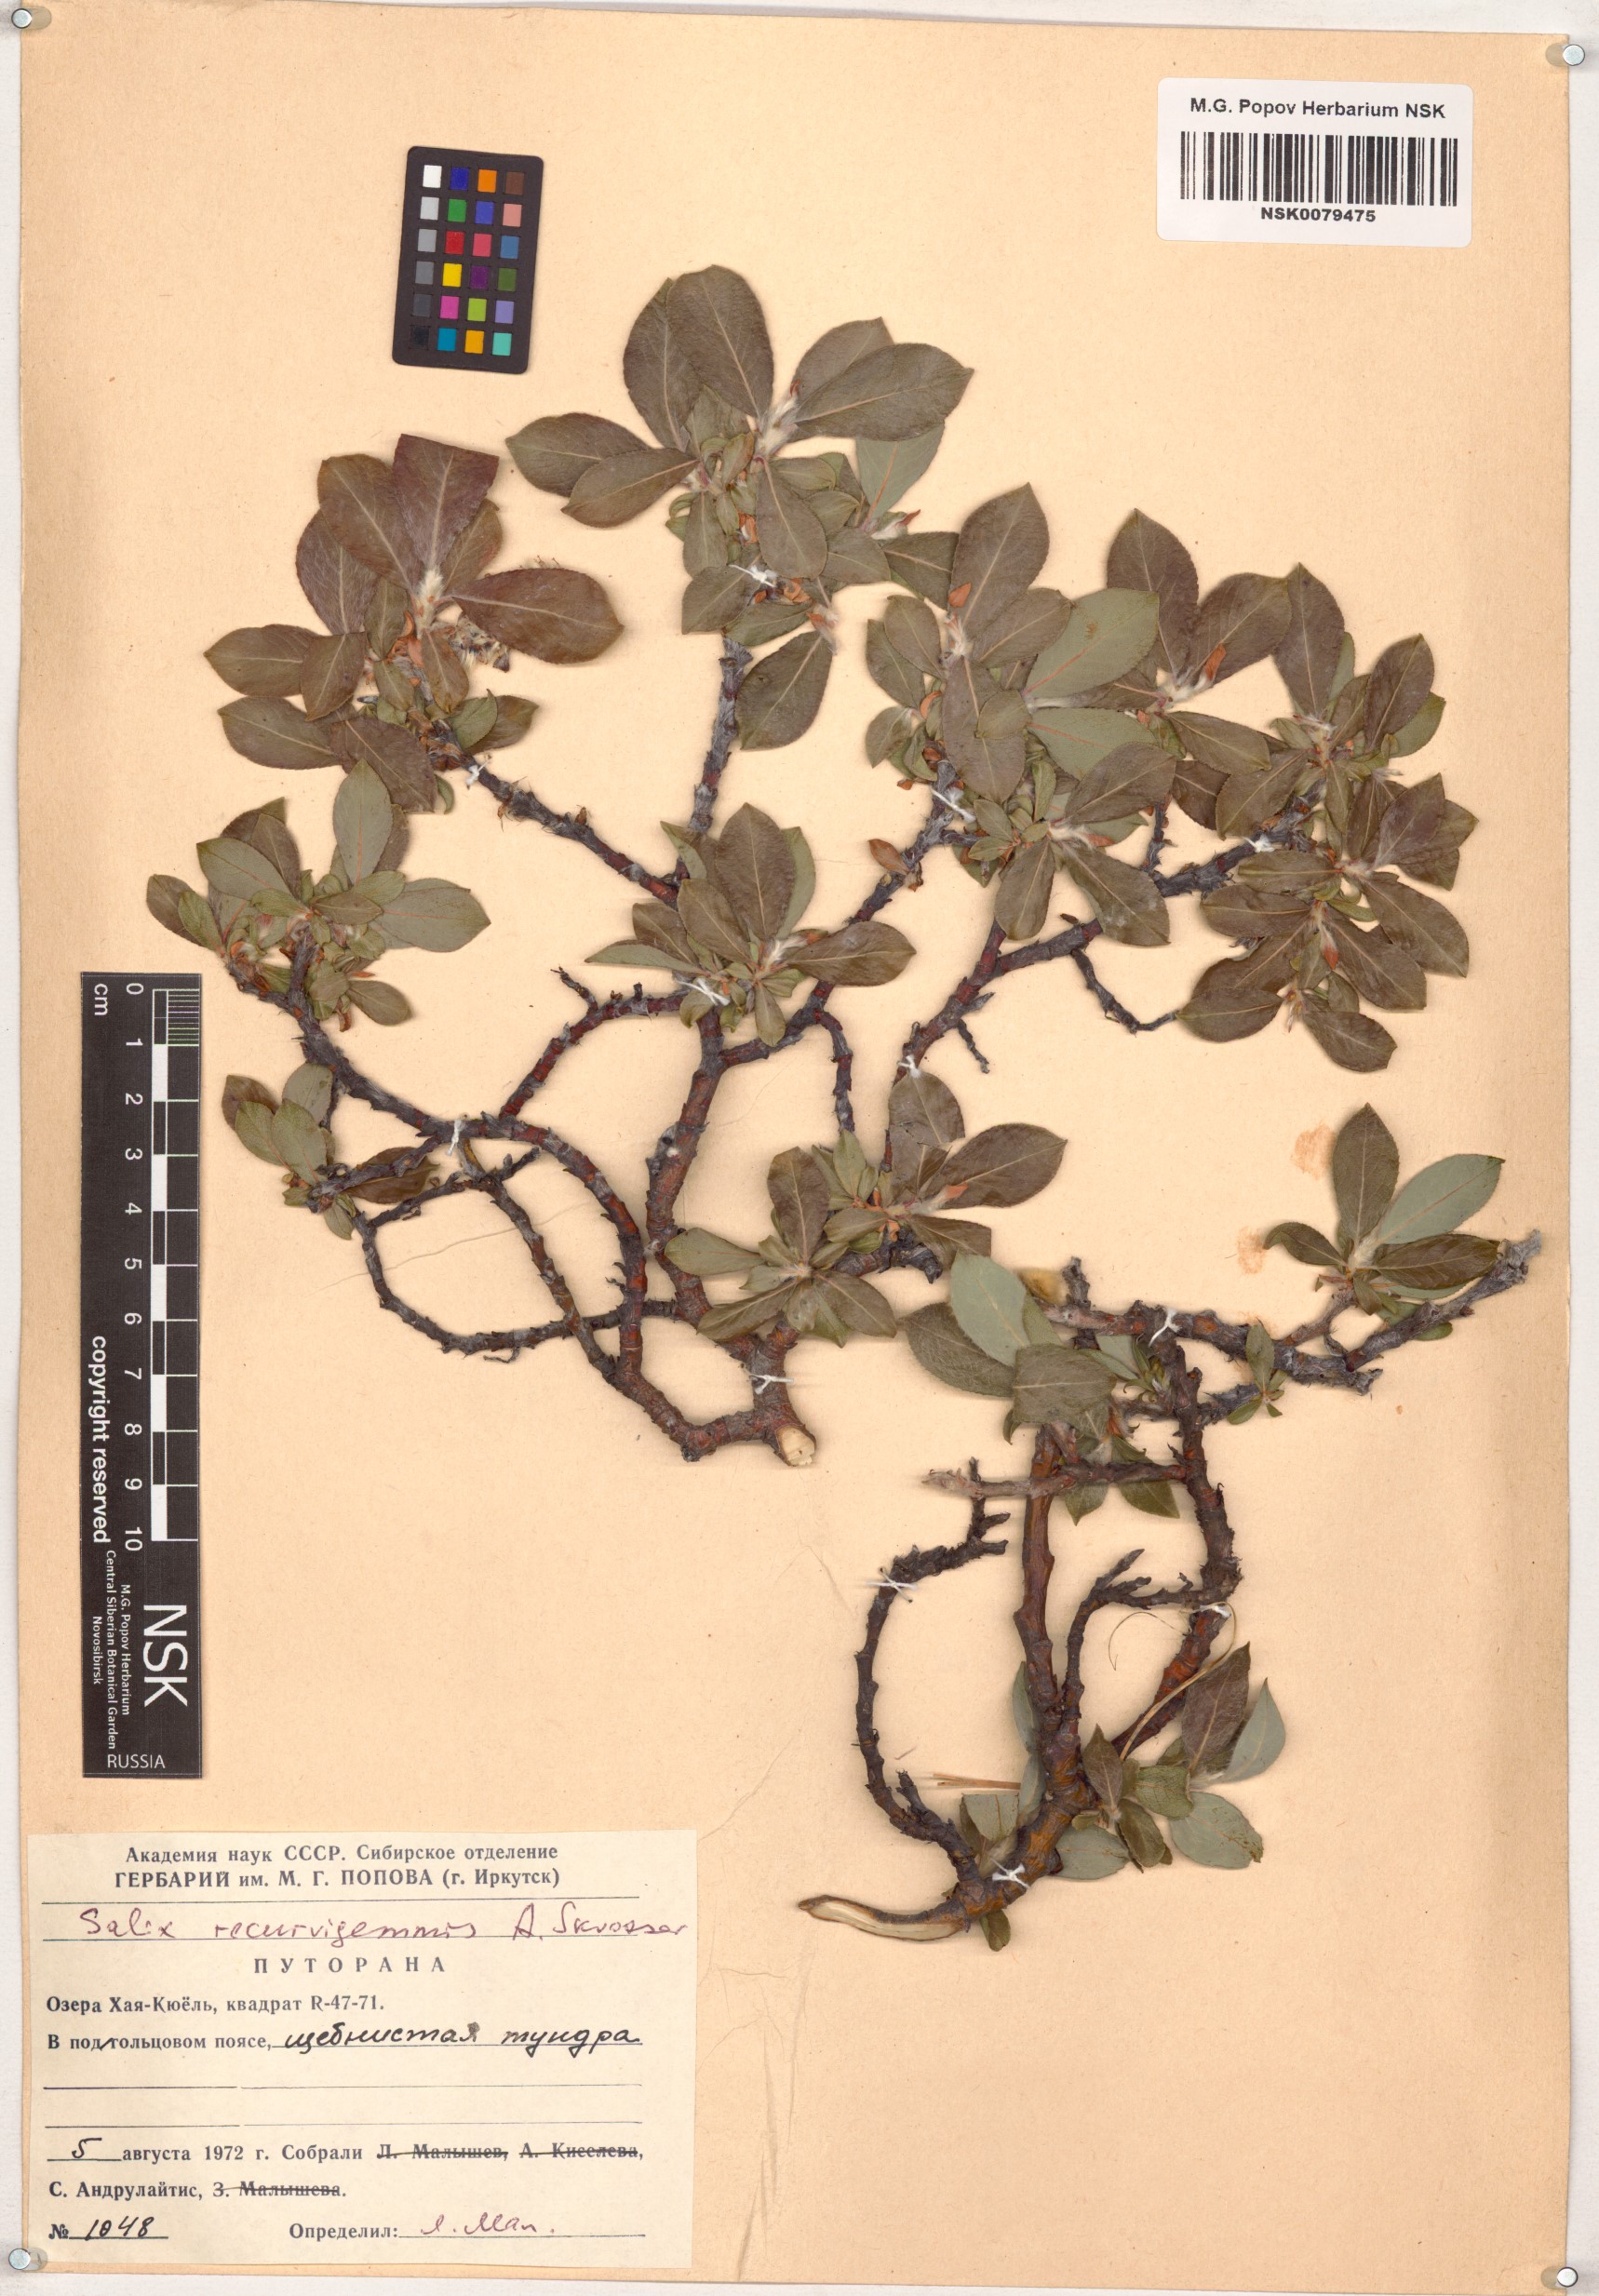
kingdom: Plantae
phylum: Tracheophyta
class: Magnoliopsida
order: Malpighiales
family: Salicaceae
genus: Salix
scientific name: Salix recurvigemmata
